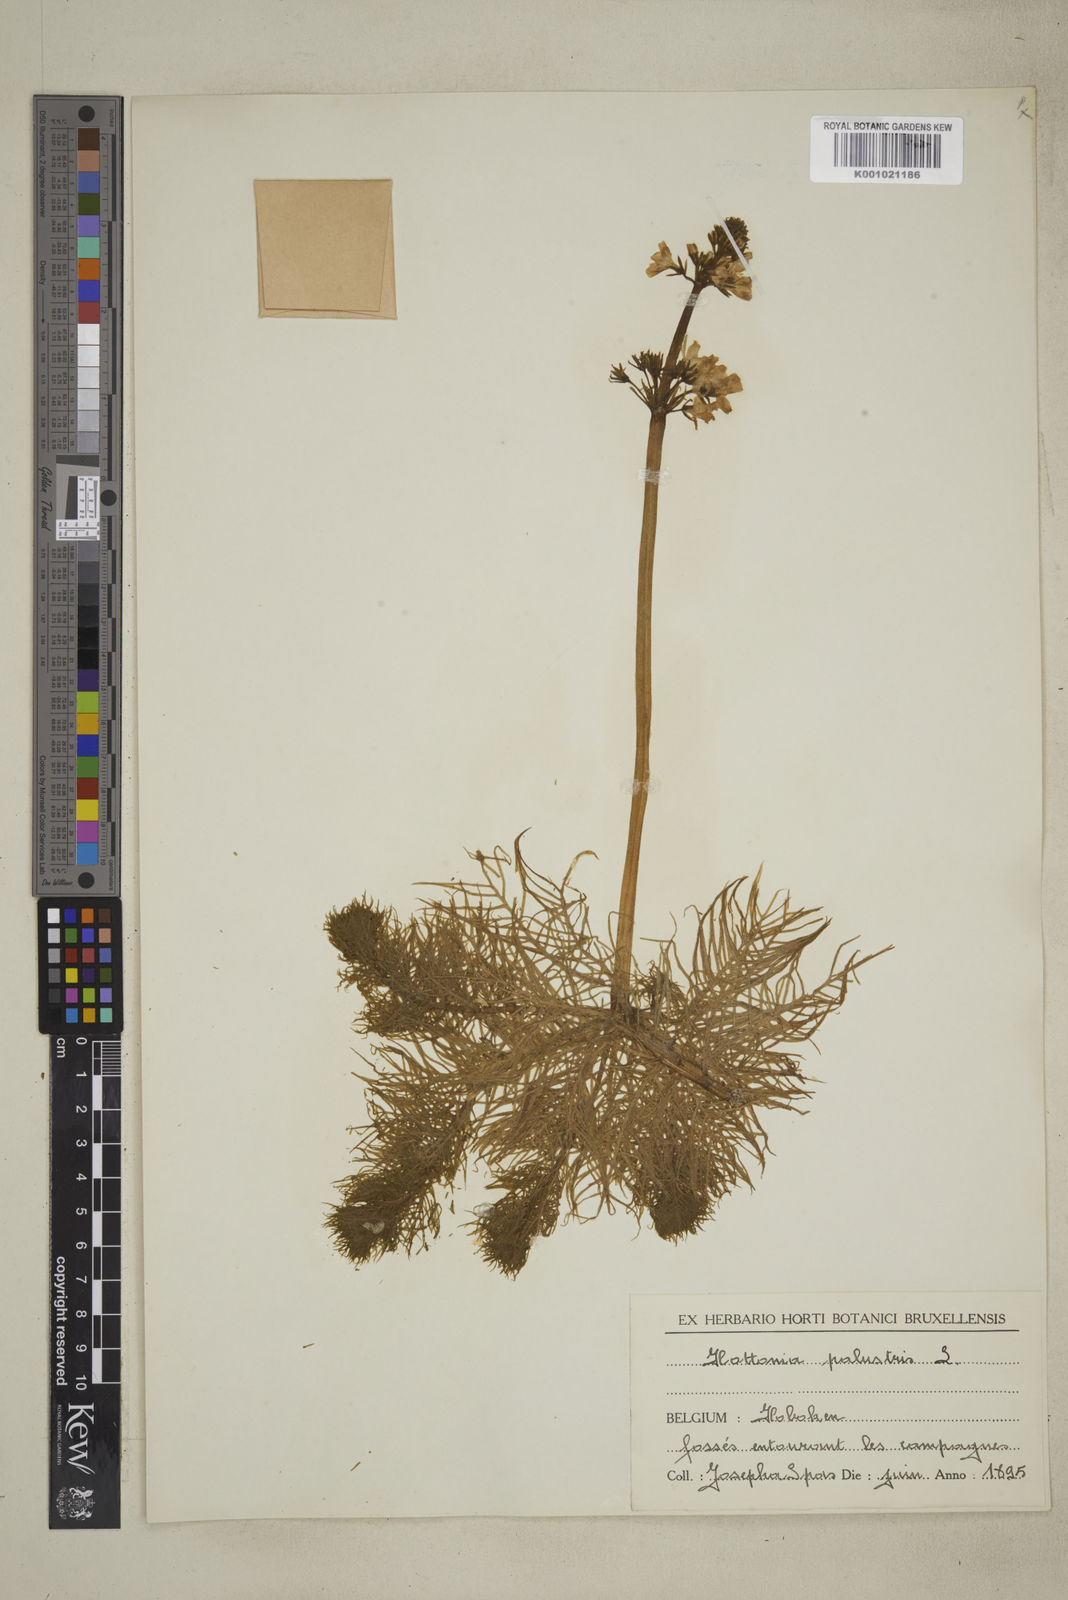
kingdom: Plantae
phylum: Tracheophyta
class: Magnoliopsida
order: Ericales
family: Primulaceae
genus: Hottonia
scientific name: Hottonia palustris
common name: Water-violet
